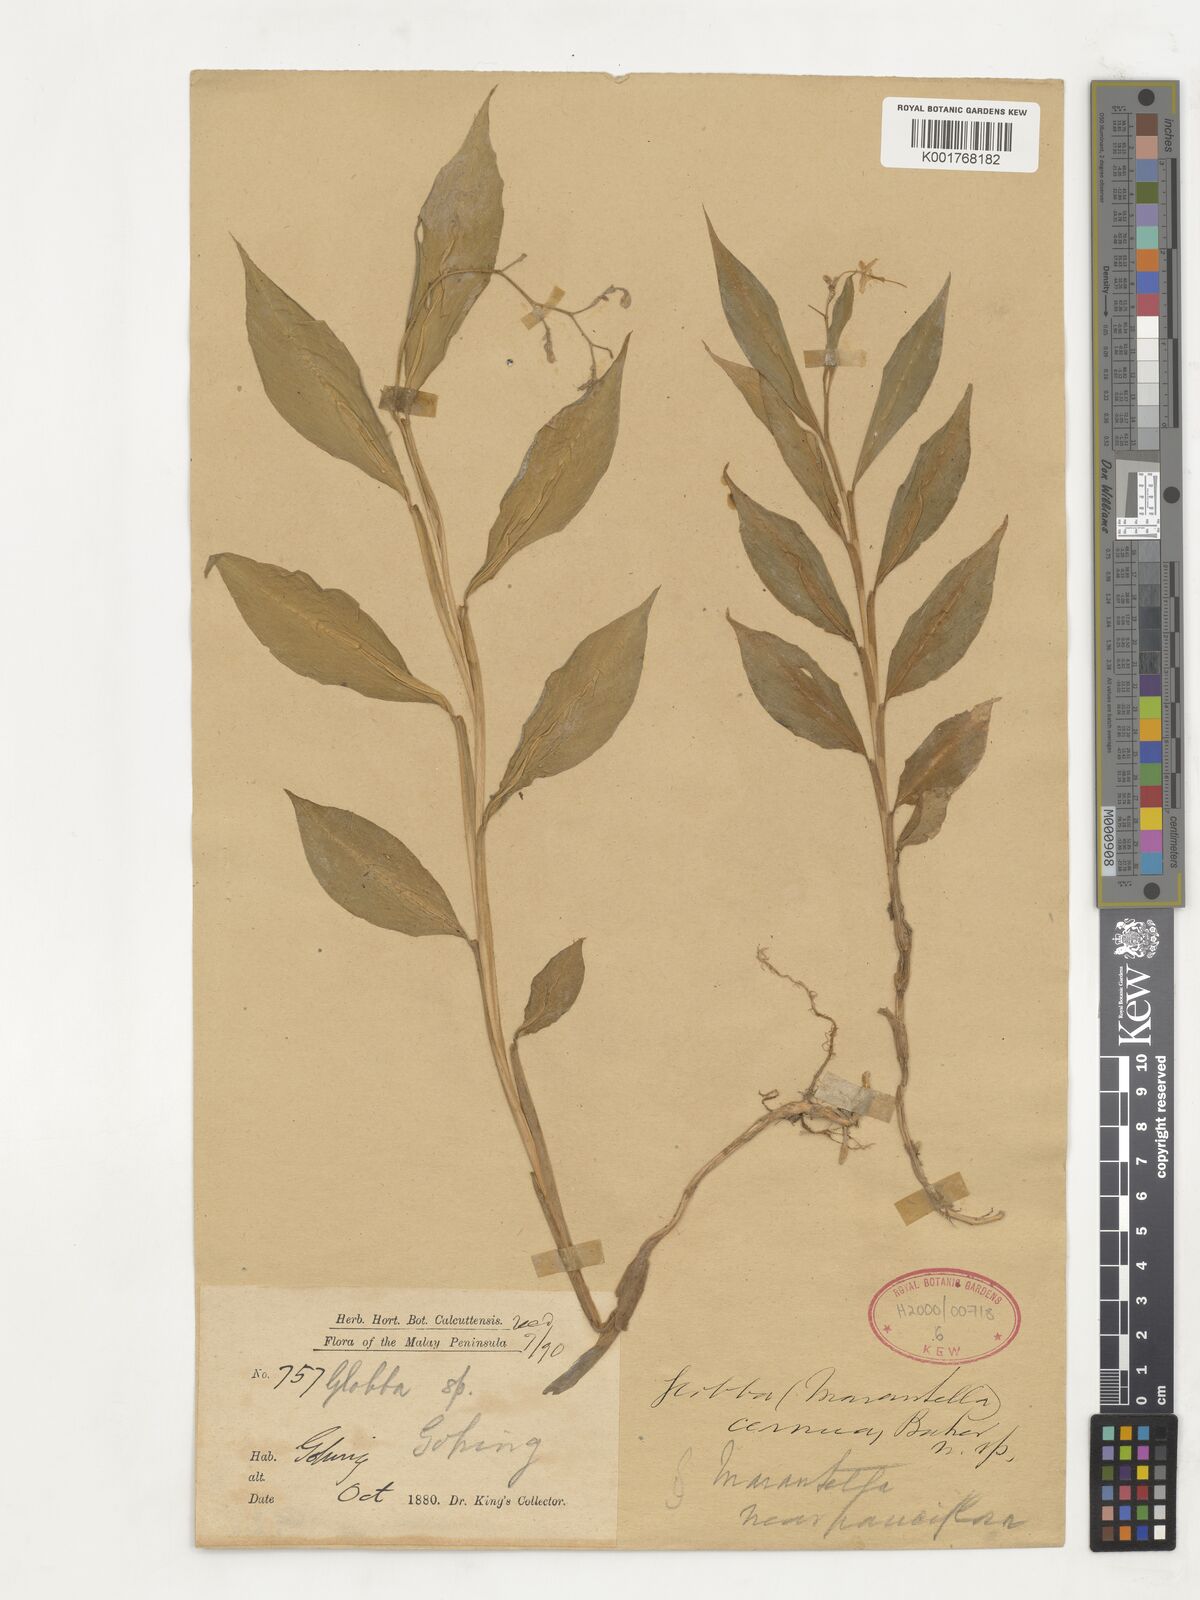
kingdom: Plantae
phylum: Tracheophyta
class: Liliopsida
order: Zingiberales
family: Zingiberaceae
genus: Globba
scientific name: Globba cernua
